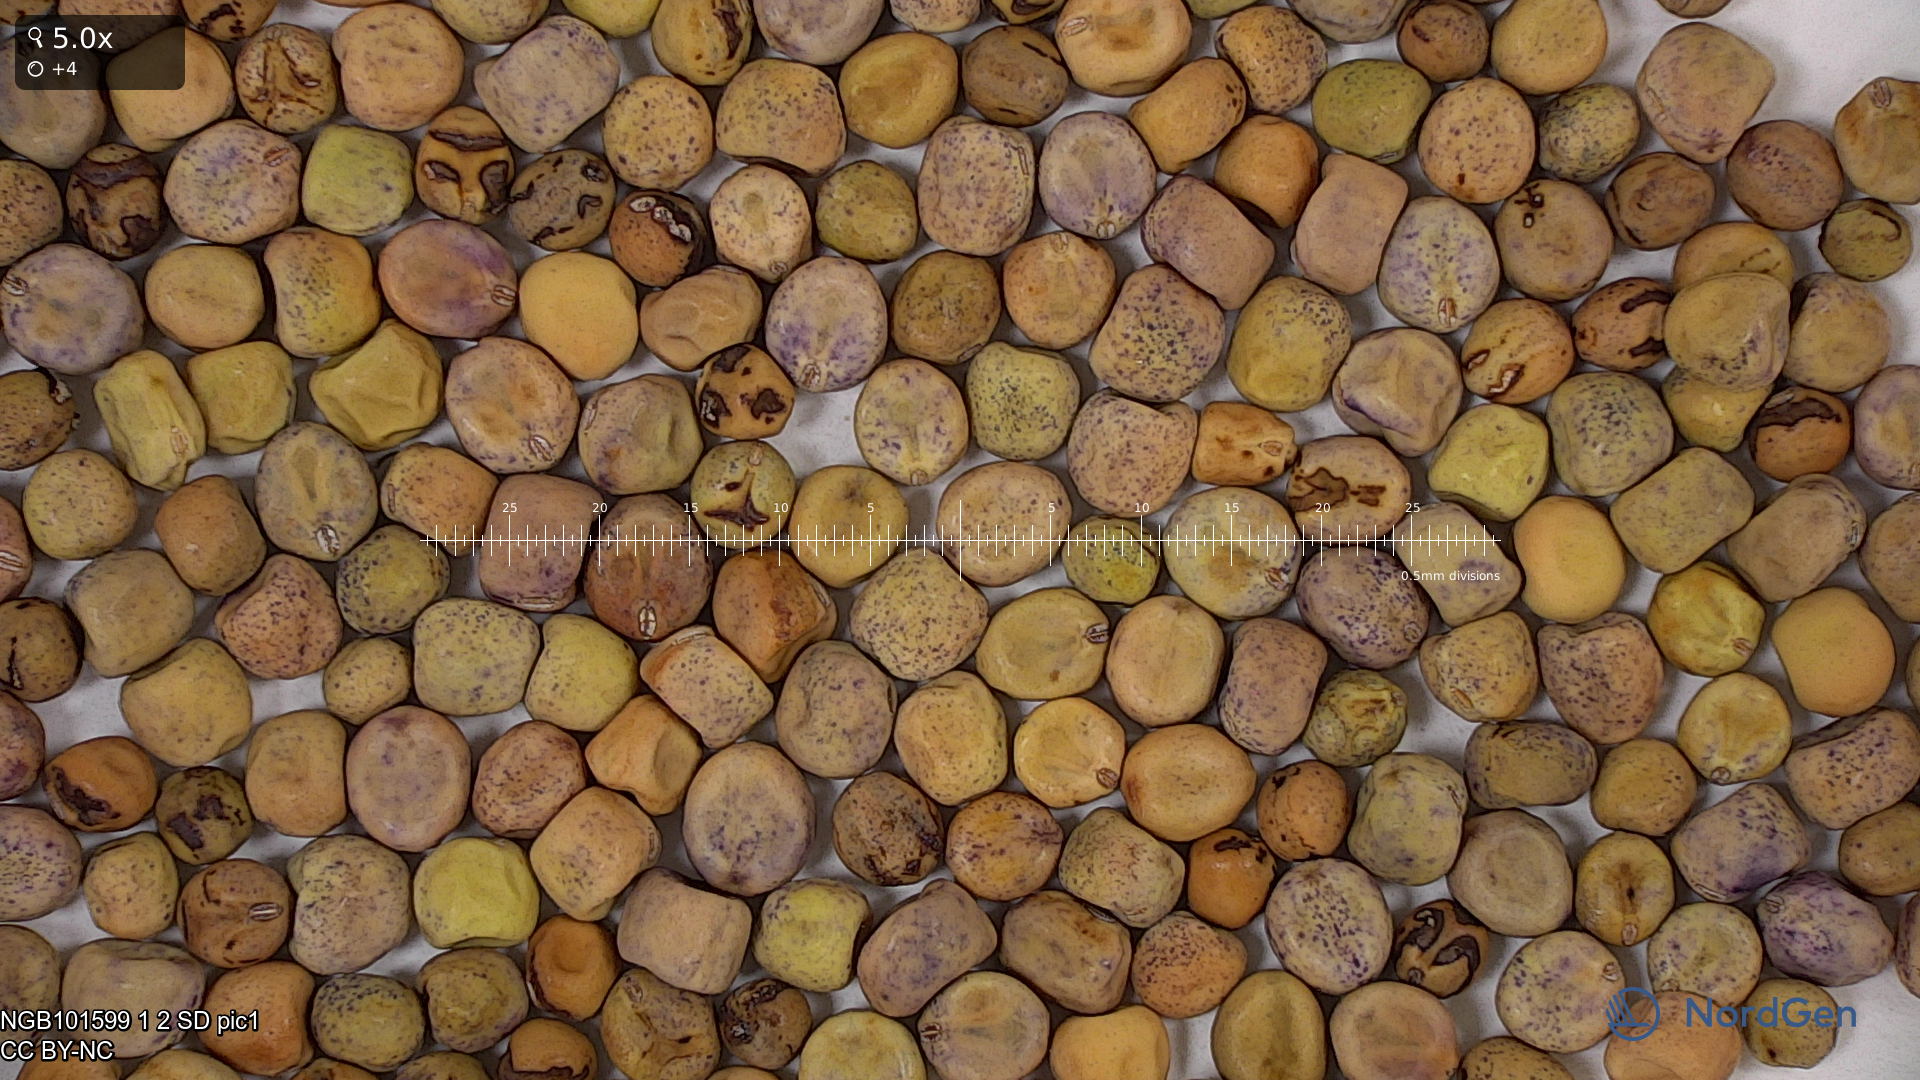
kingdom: Plantae
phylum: Tracheophyta
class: Magnoliopsida
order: Fabales
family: Fabaceae
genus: Lathyrus
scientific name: Lathyrus oleraceus
